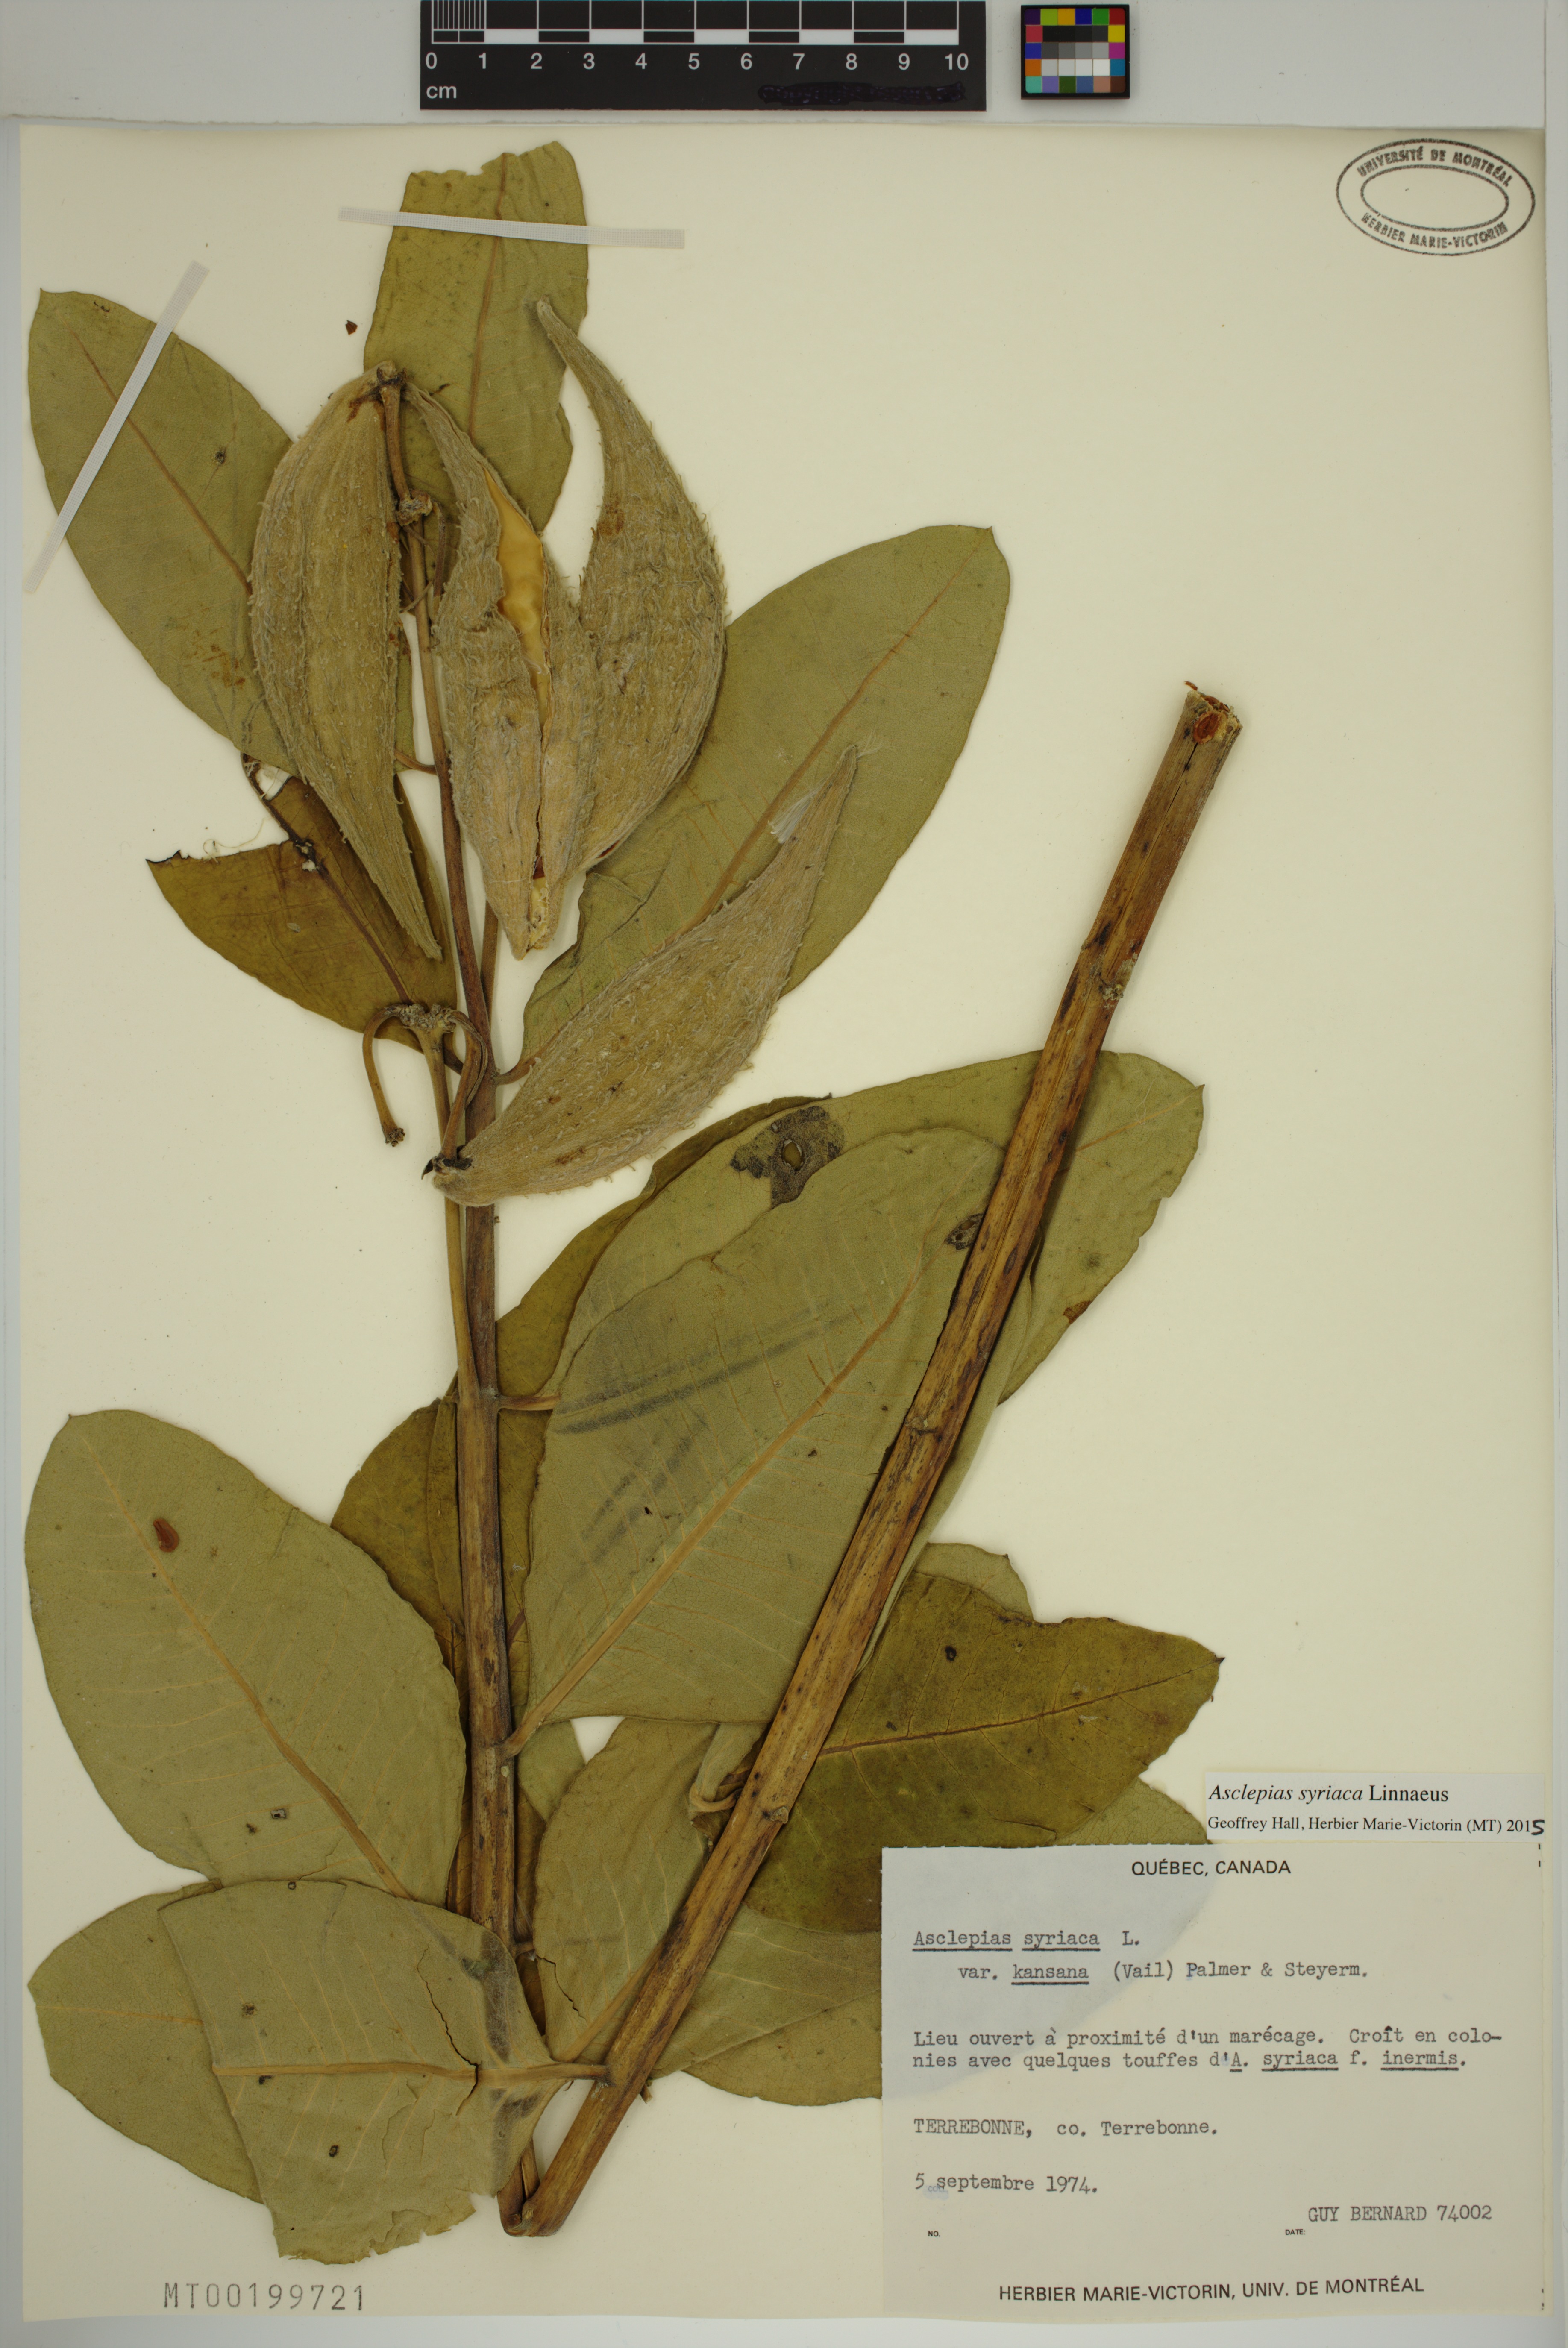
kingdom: Plantae
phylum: Tracheophyta
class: Magnoliopsida
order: Gentianales
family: Apocynaceae
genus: Asclepias
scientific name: Asclepias syriaca
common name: Common milkweed
